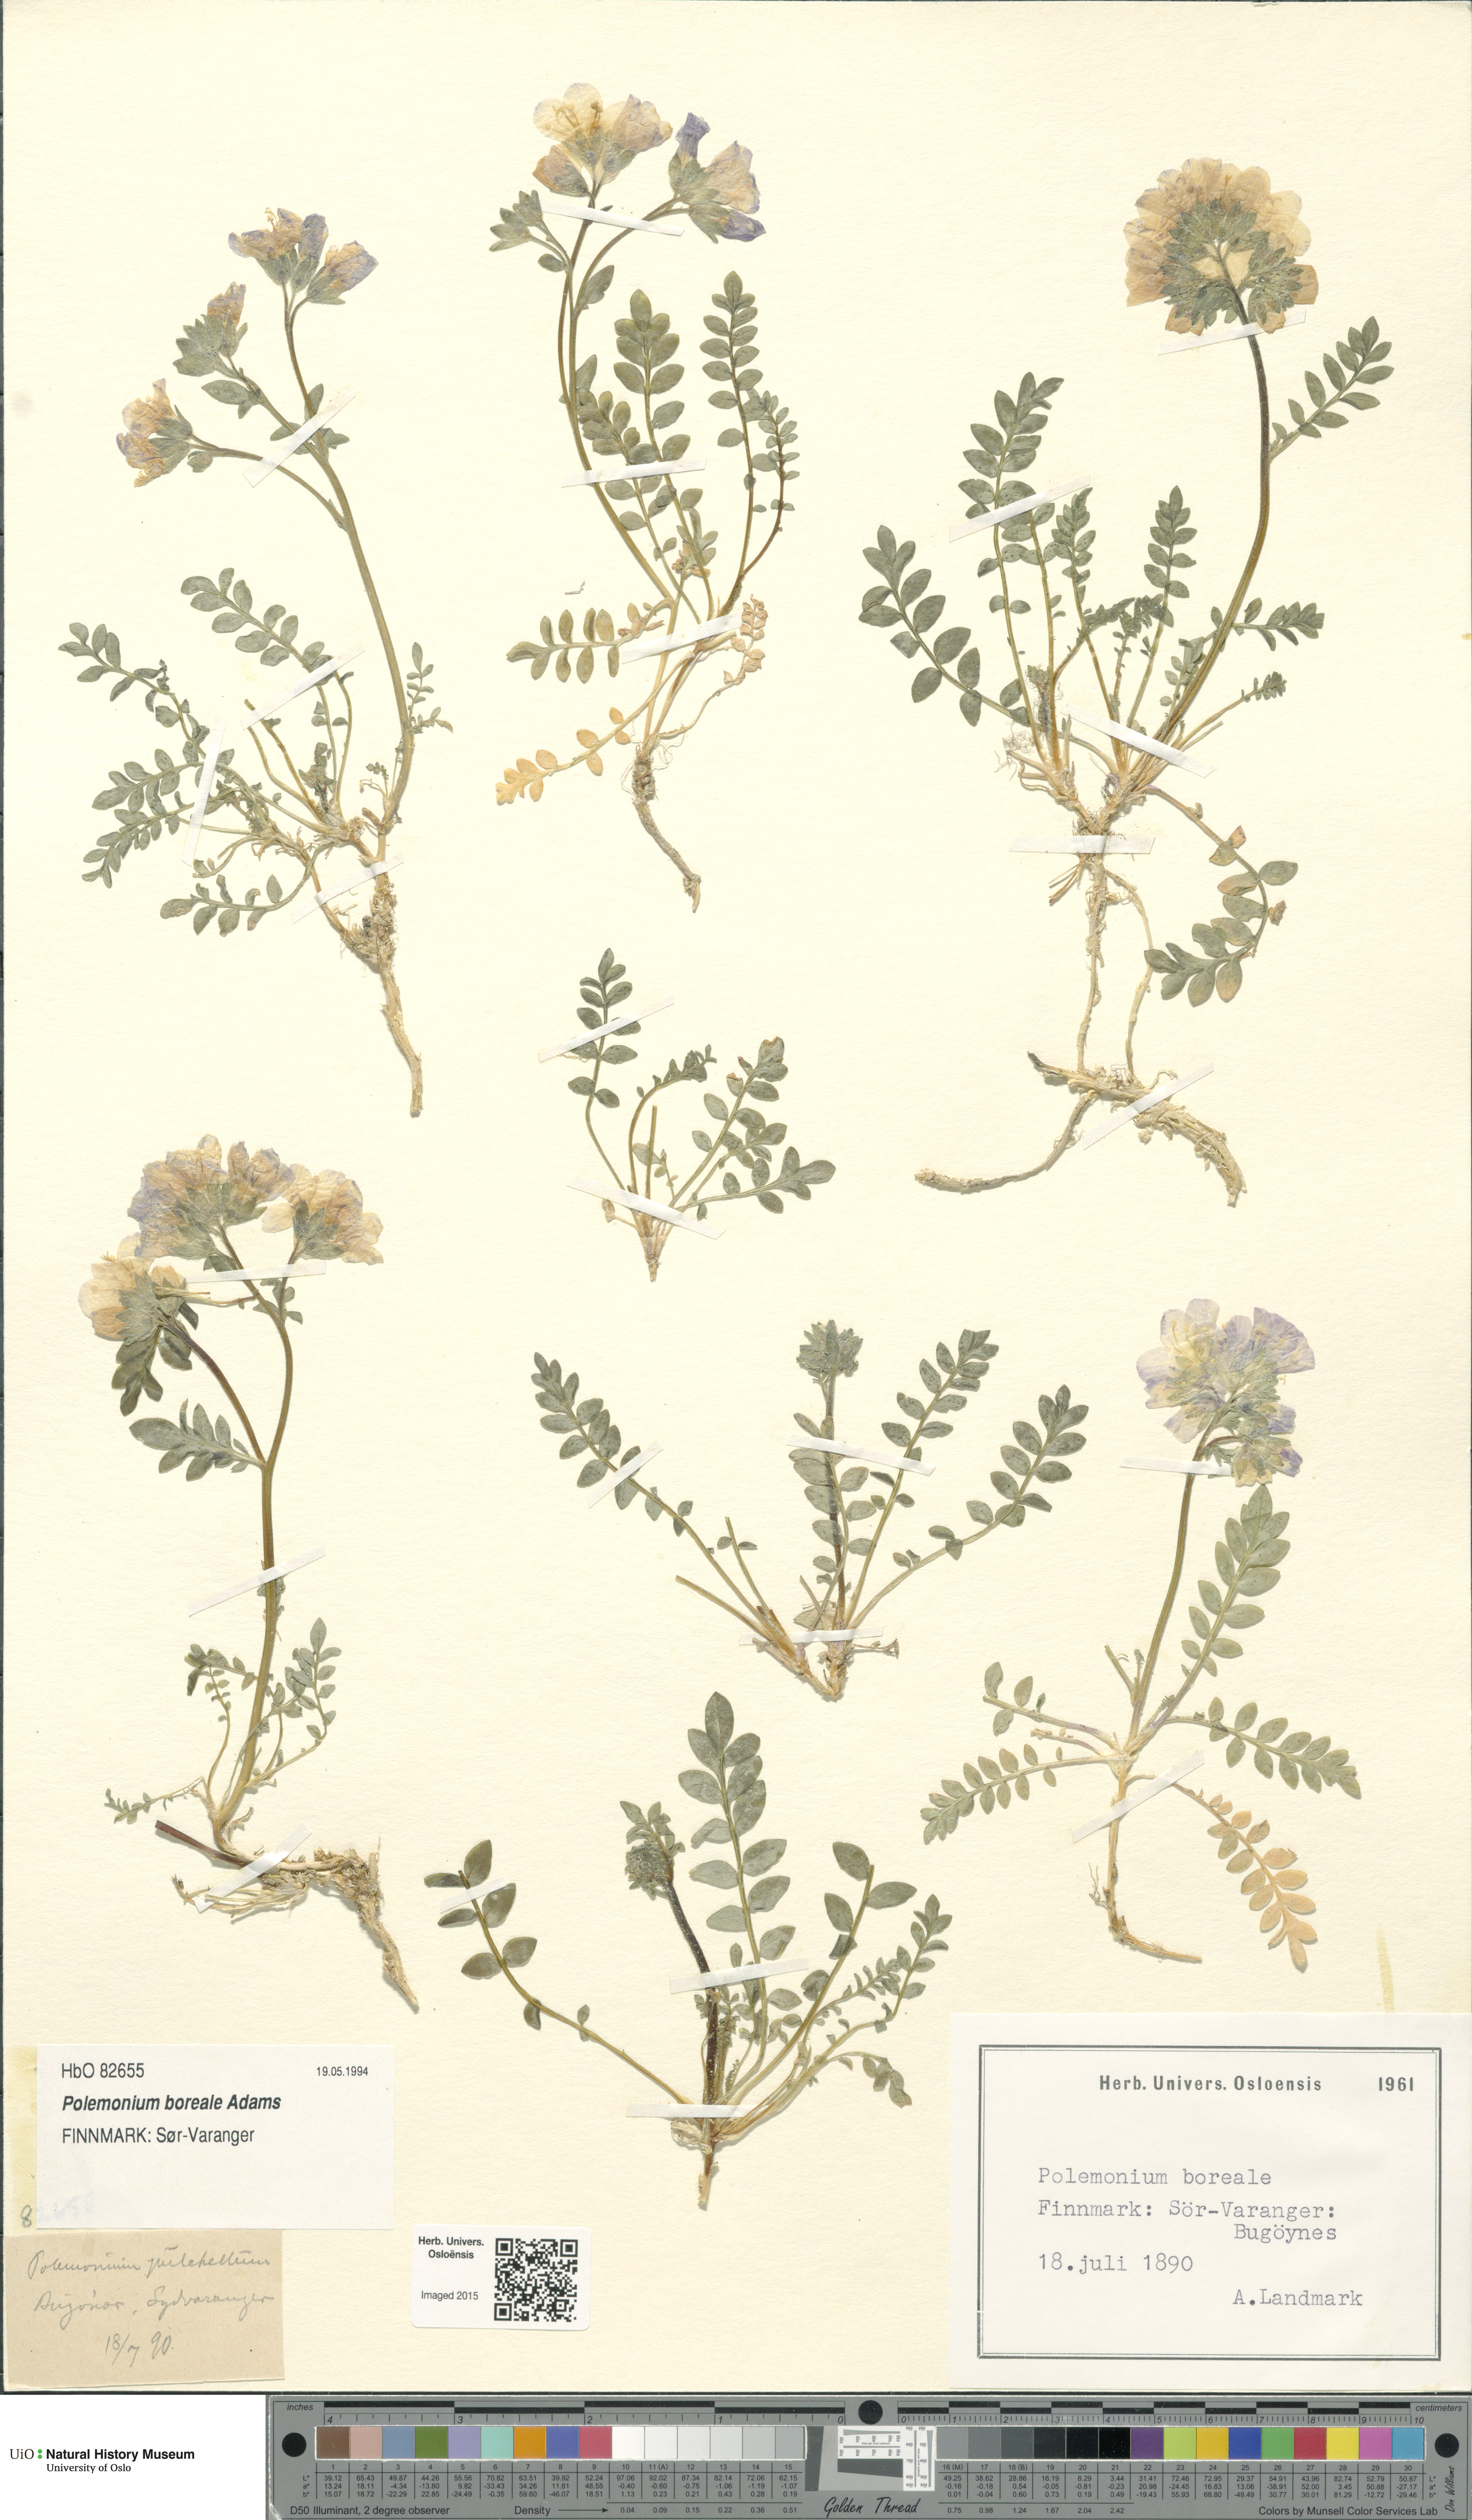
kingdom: Plantae
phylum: Tracheophyta
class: Magnoliopsida
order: Ericales
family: Polemoniaceae
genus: Polemonium
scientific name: Polemonium boreale
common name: Boreal jacob's-ladder
